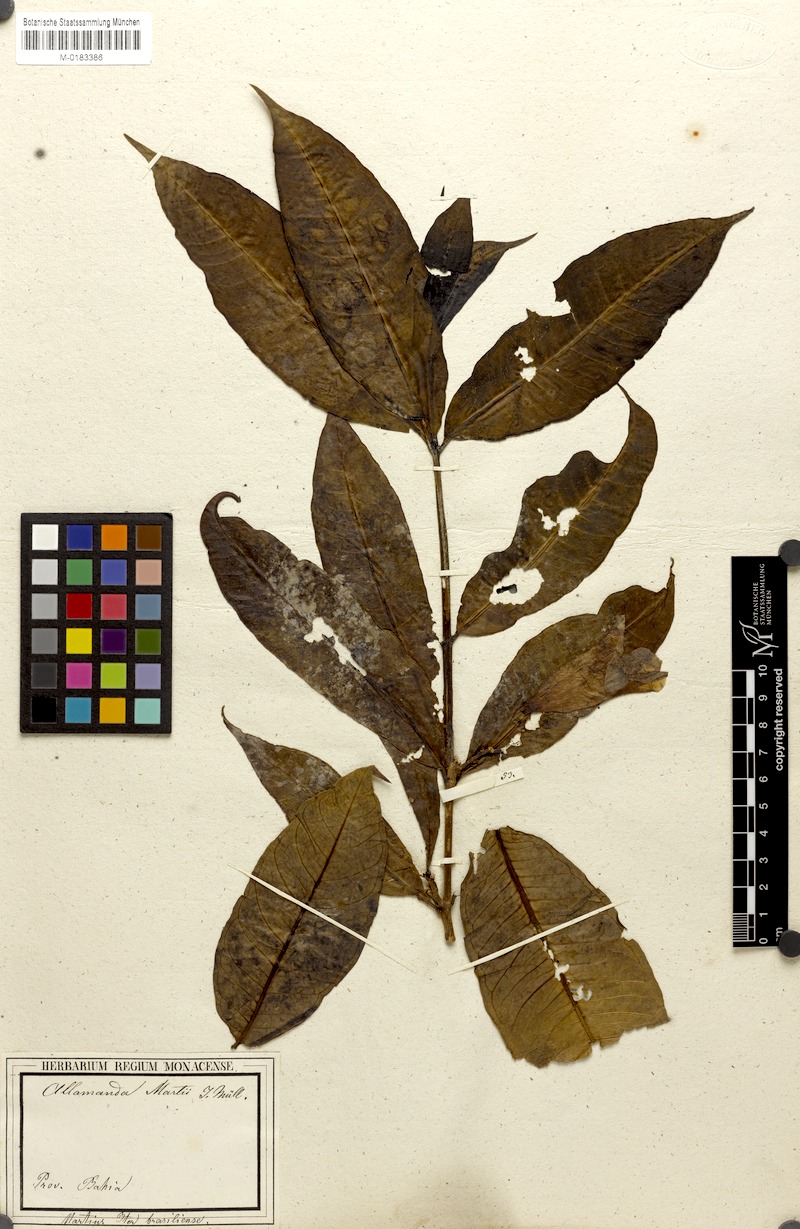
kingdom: Plantae
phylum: Tracheophyta
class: Magnoliopsida
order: Gentianales
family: Apocynaceae
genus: Allamanda
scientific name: Allamanda martii
